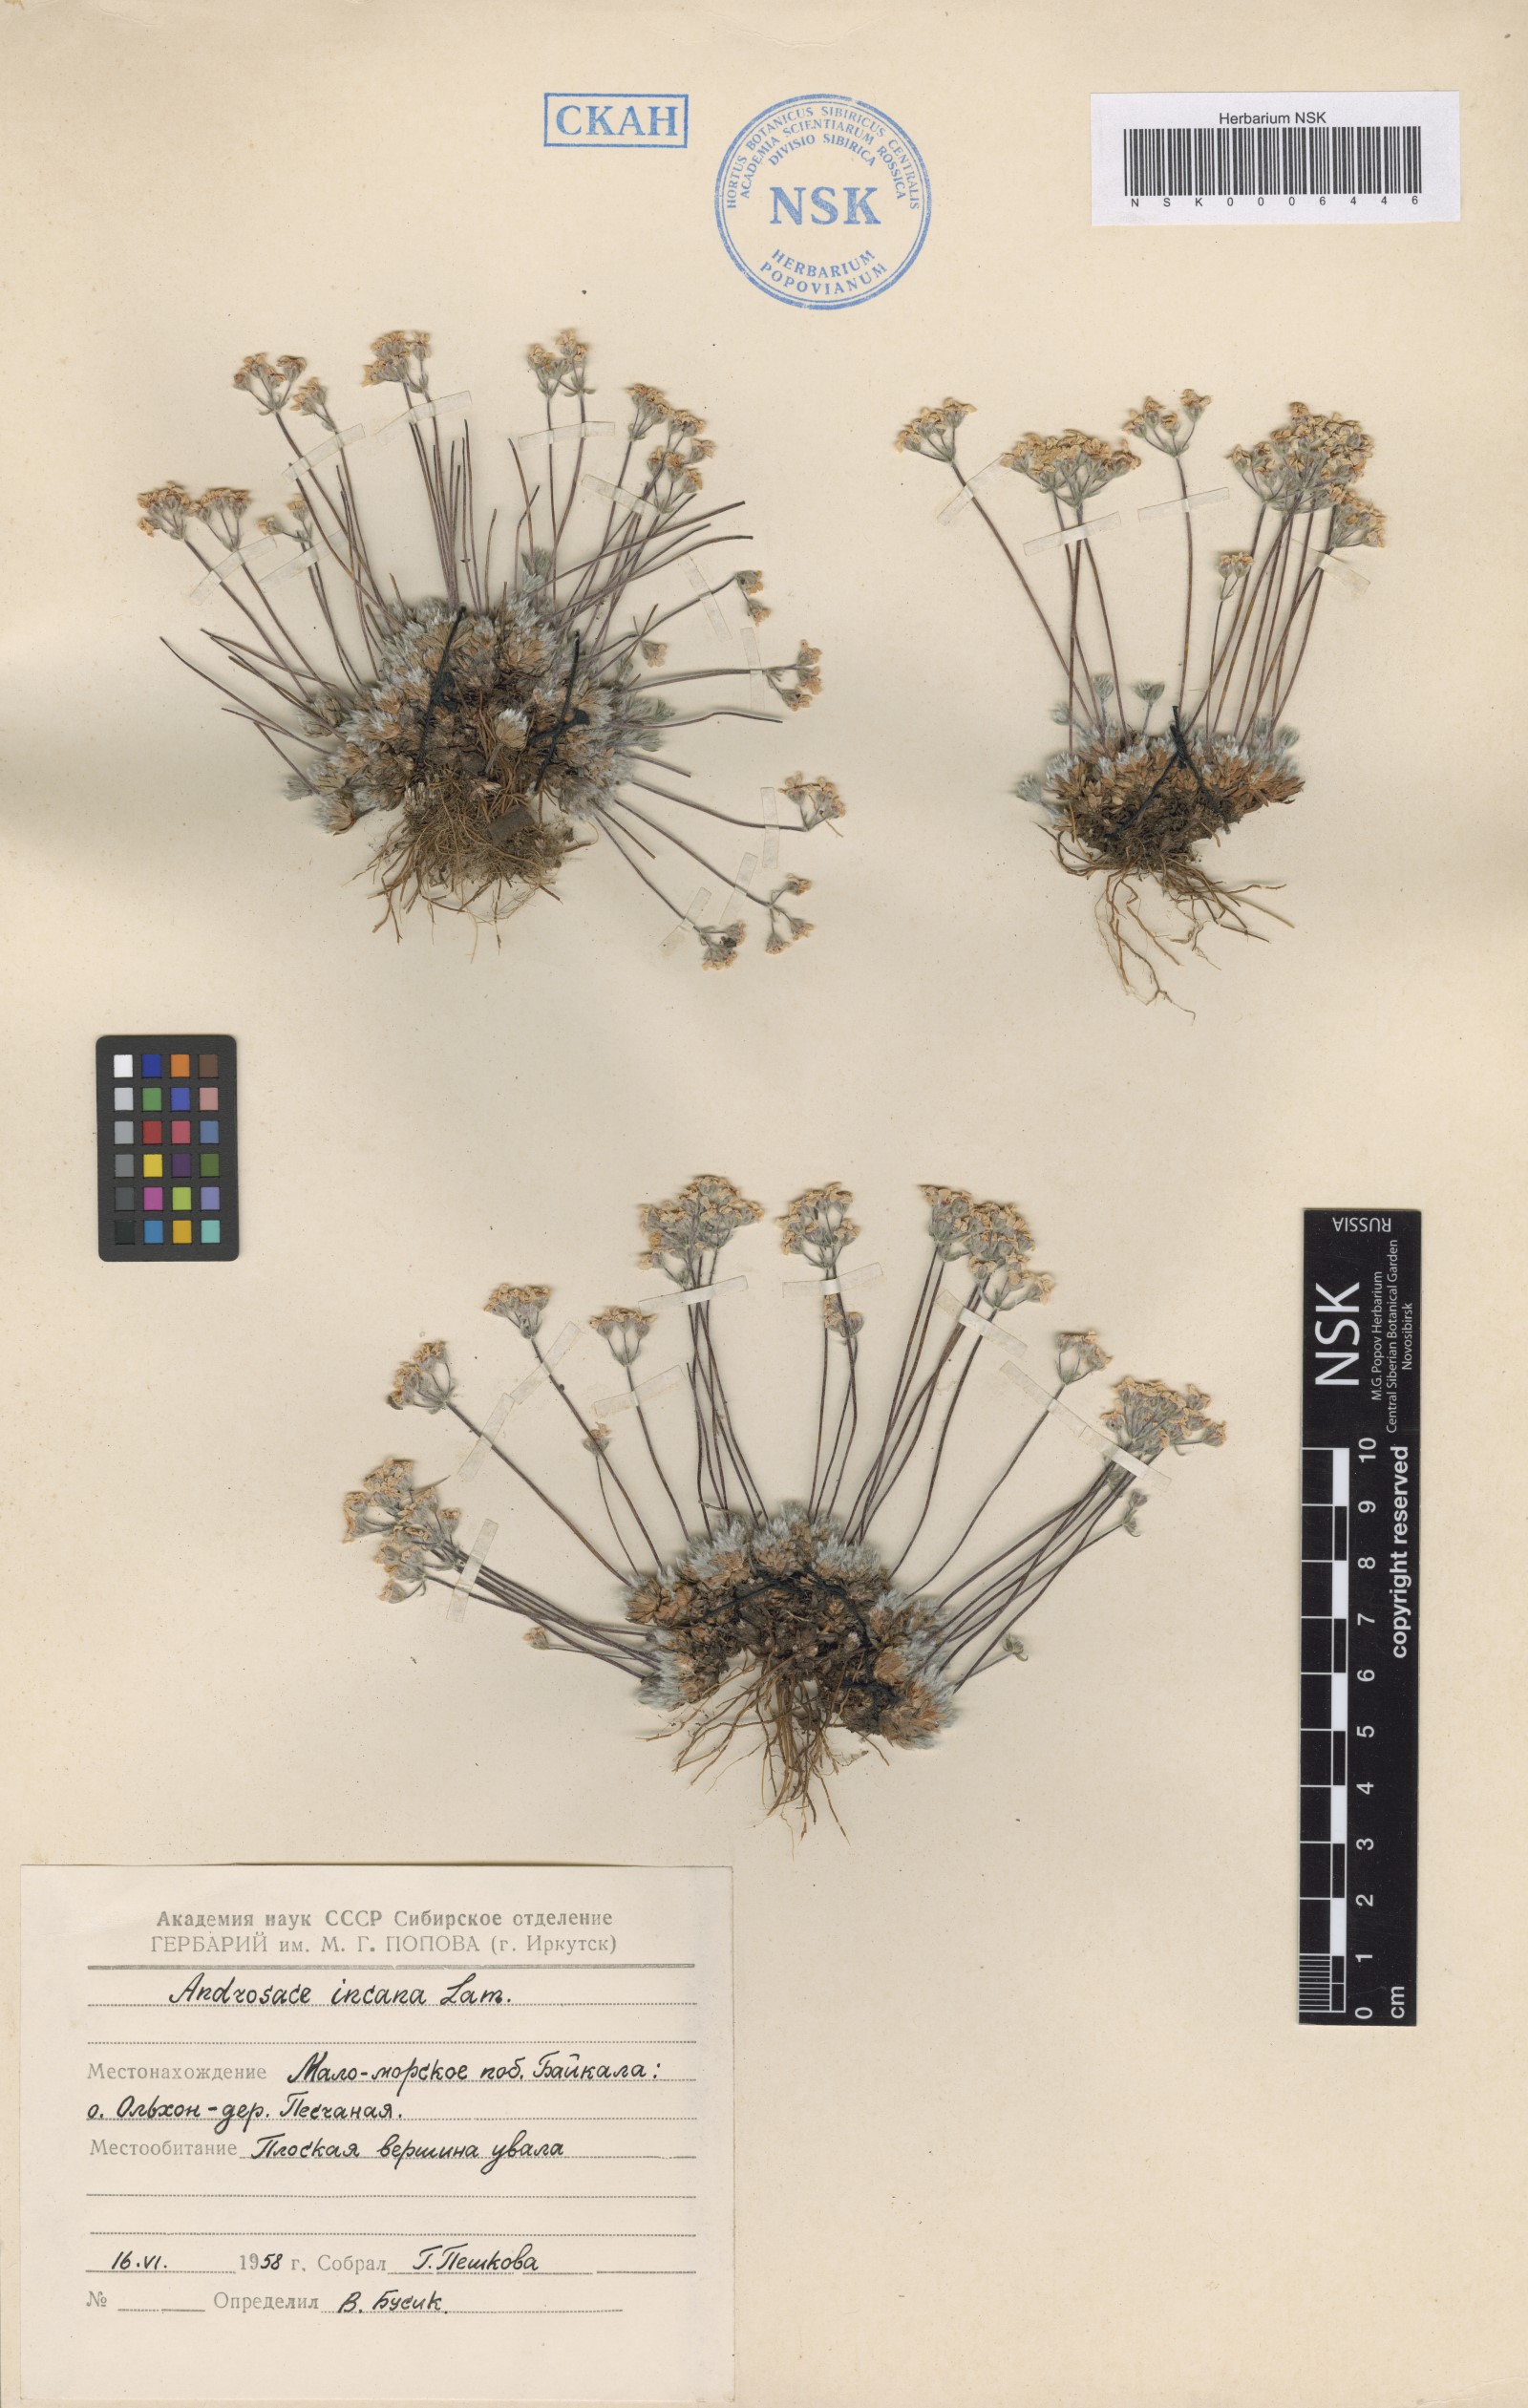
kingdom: Plantae
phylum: Tracheophyta
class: Magnoliopsida
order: Ericales
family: Primulaceae
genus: Androsace
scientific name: Androsace incana
